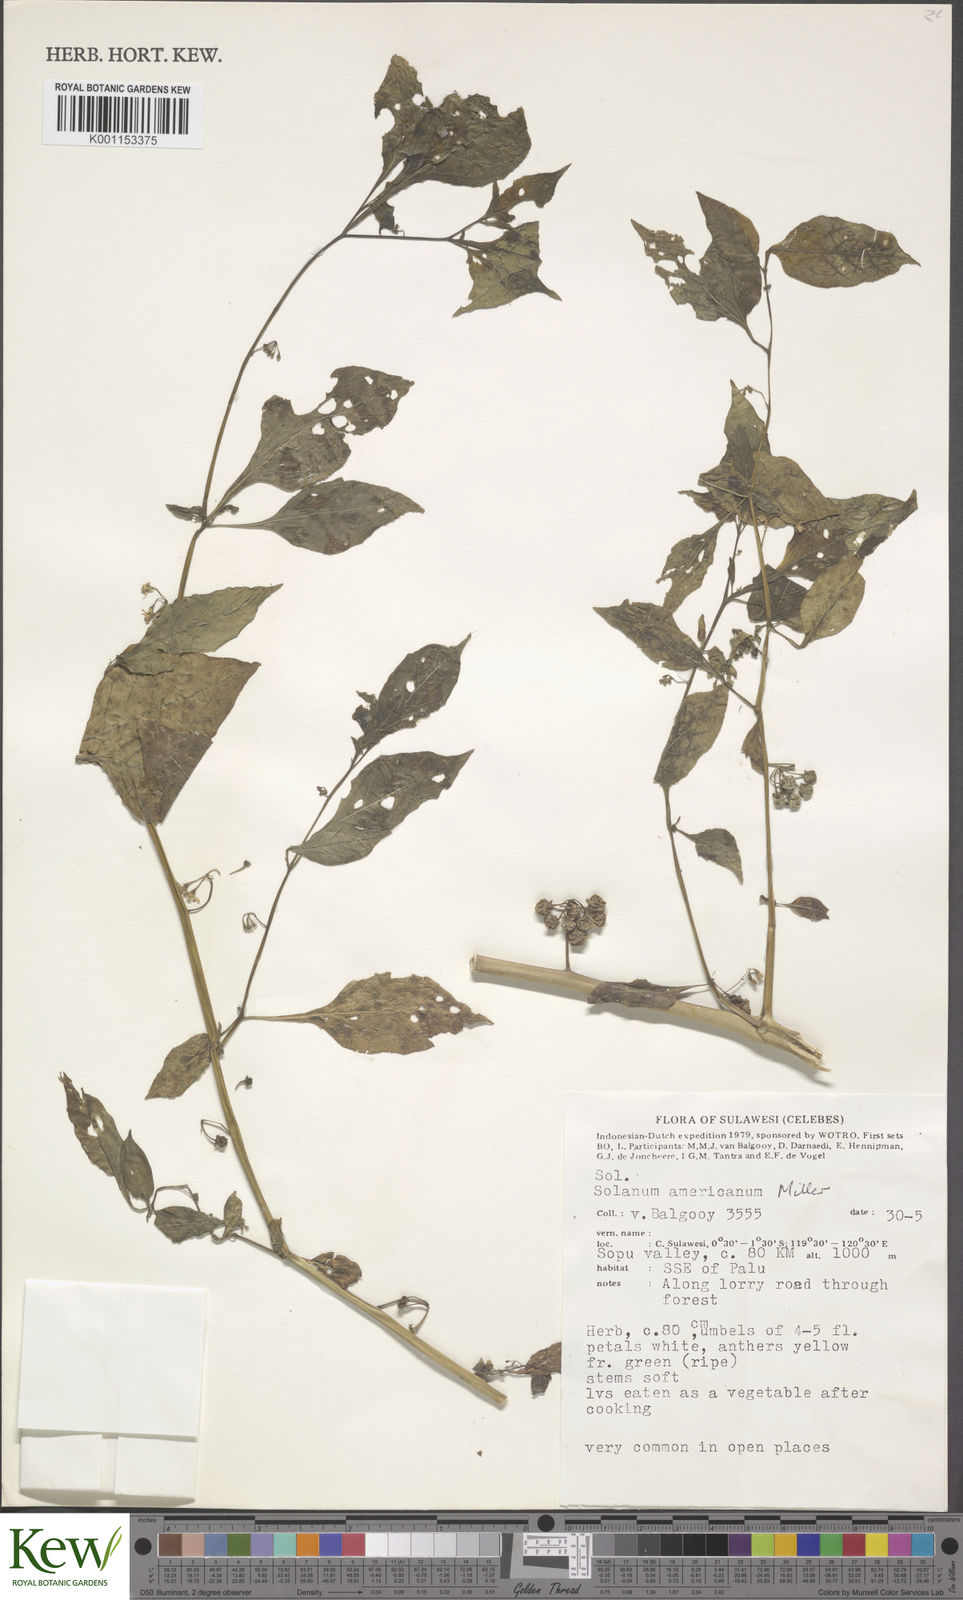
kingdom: Plantae
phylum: Tracheophyta
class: Magnoliopsida
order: Solanales
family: Solanaceae
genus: Solanum
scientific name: Solanum americanum
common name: American black nightshade
